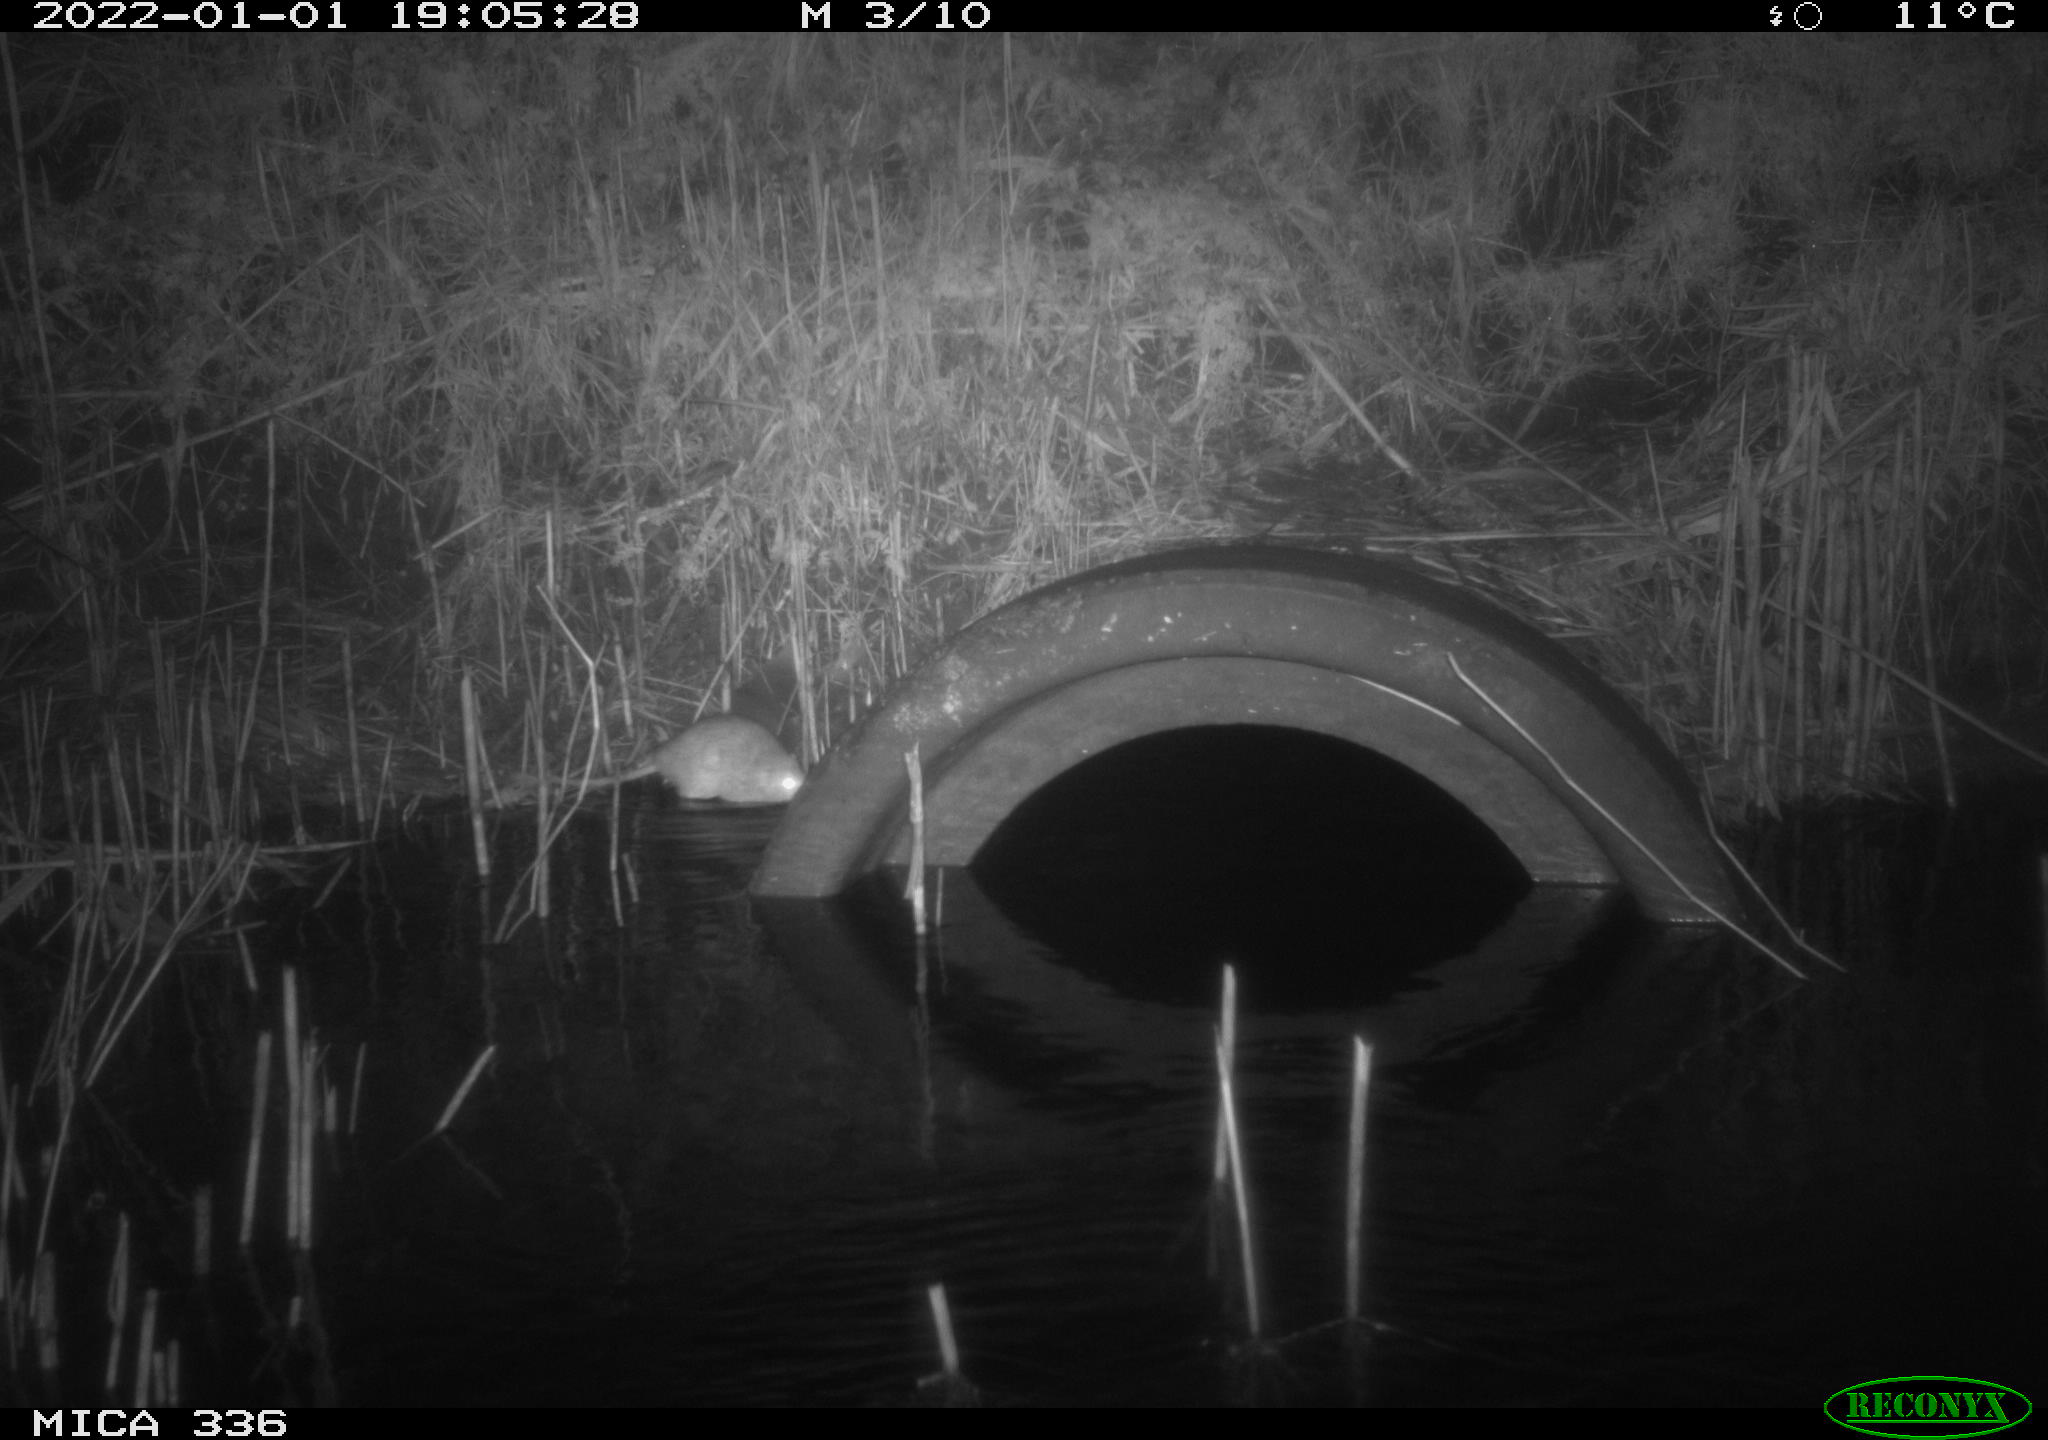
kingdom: Animalia
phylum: Chordata
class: Mammalia
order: Rodentia
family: Muridae
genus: Rattus
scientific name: Rattus norvegicus
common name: Brown rat
